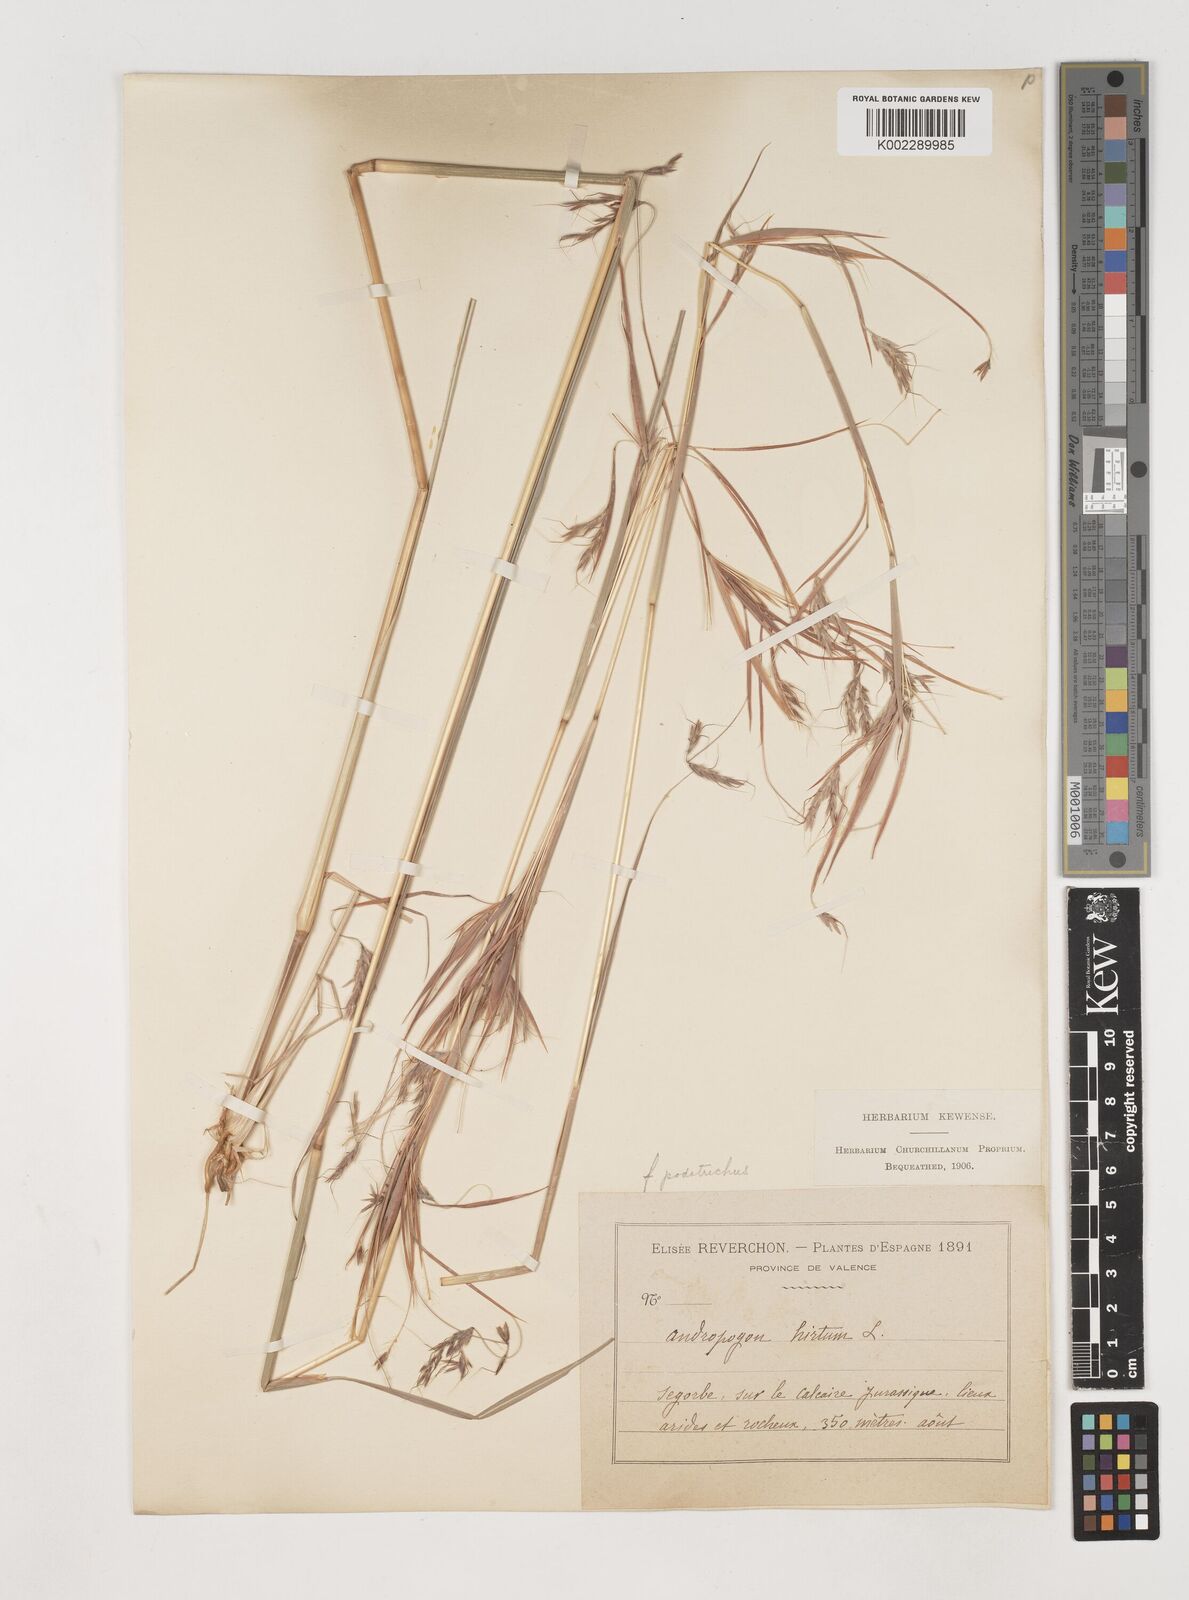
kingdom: Plantae
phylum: Tracheophyta
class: Liliopsida
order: Poales
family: Poaceae
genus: Hyparrhenia
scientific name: Hyparrhenia hirta
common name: Thatching grass
